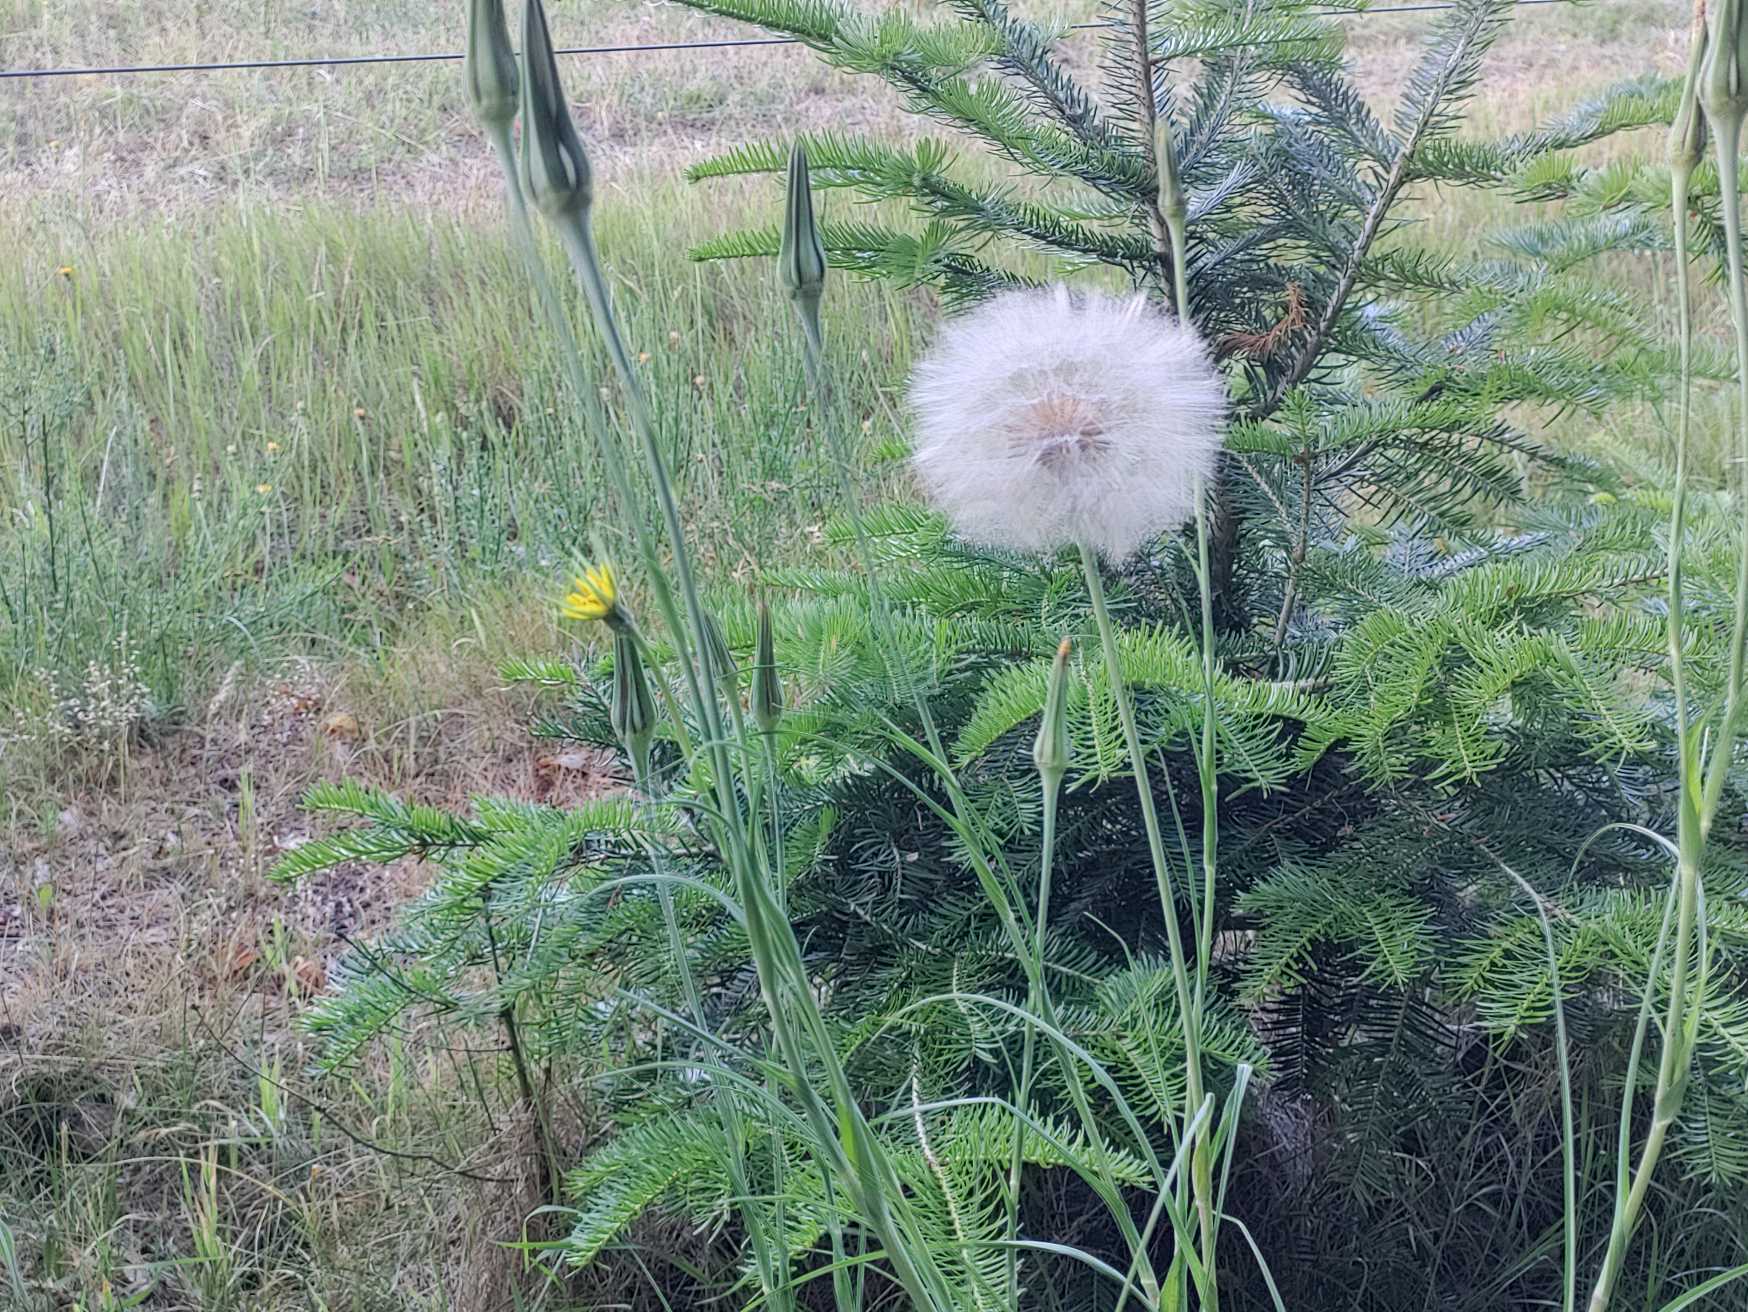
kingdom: Plantae
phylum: Tracheophyta
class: Magnoliopsida
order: Asterales
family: Asteraceae
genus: Tragopogon
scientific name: Tragopogon pratensis
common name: Gedeskæg
